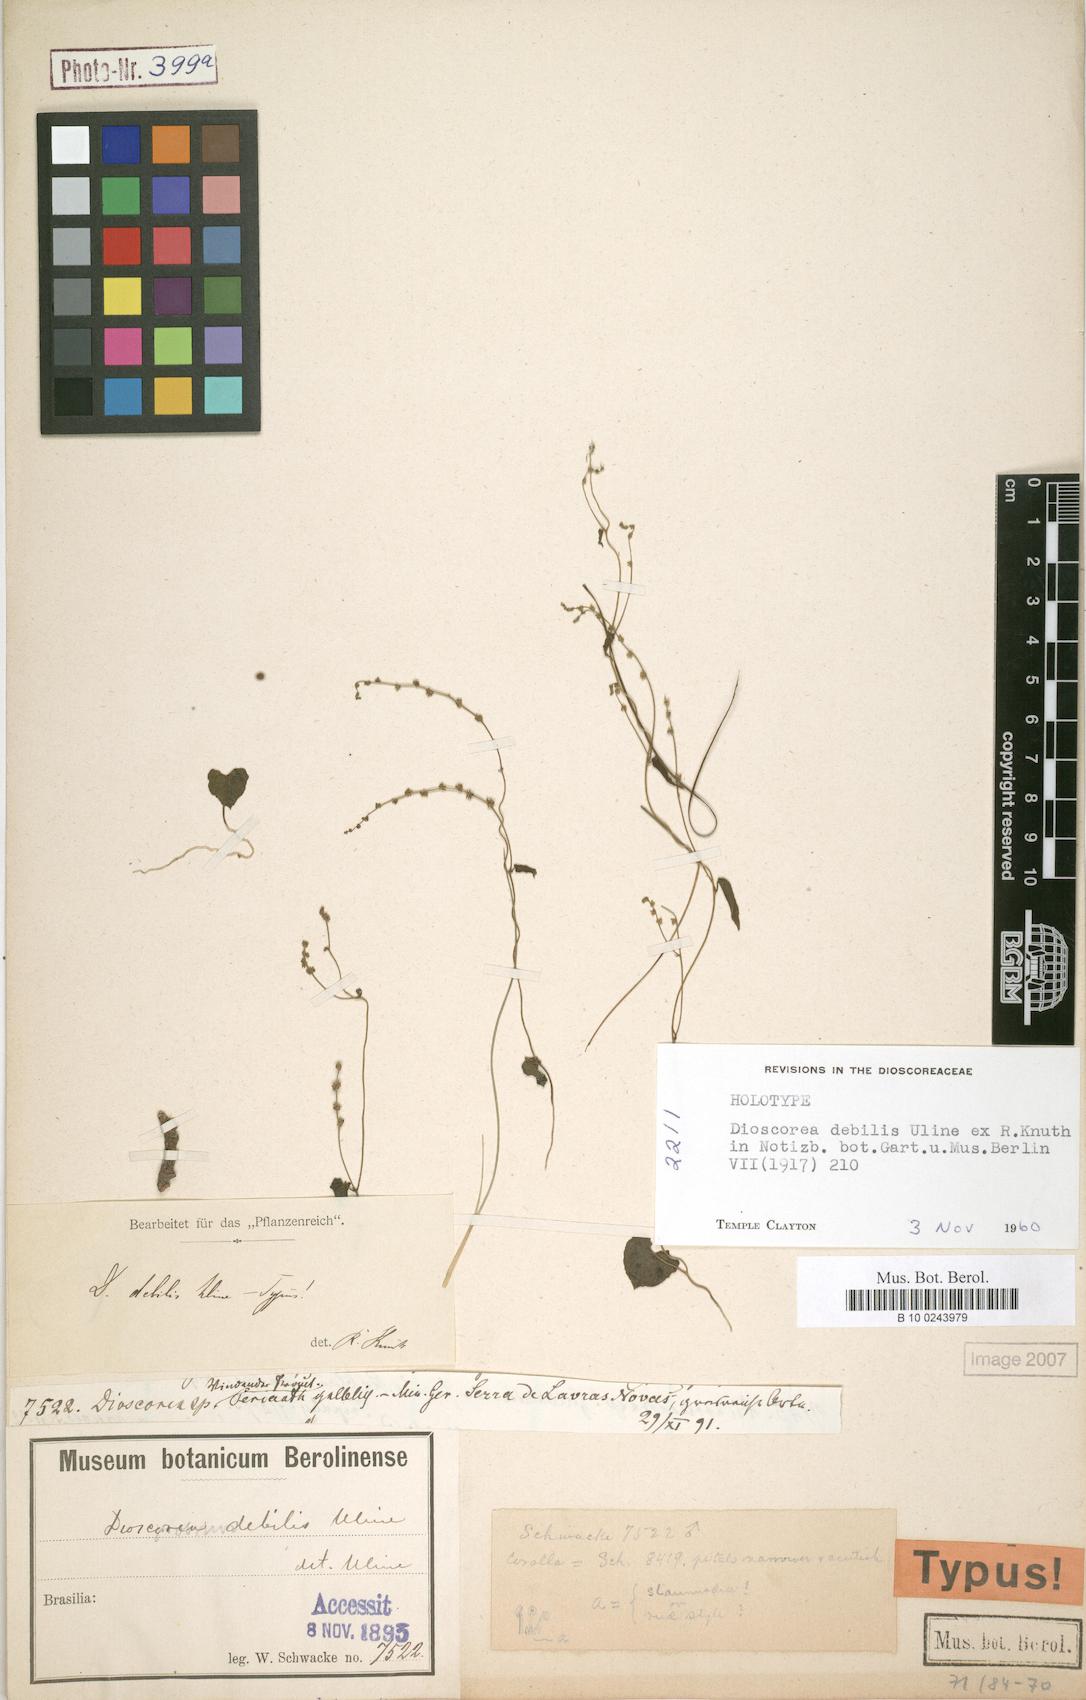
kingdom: Plantae
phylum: Tracheophyta
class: Liliopsida
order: Dioscoreales
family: Dioscoreaceae
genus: Dioscorea
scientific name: Dioscorea debilis
